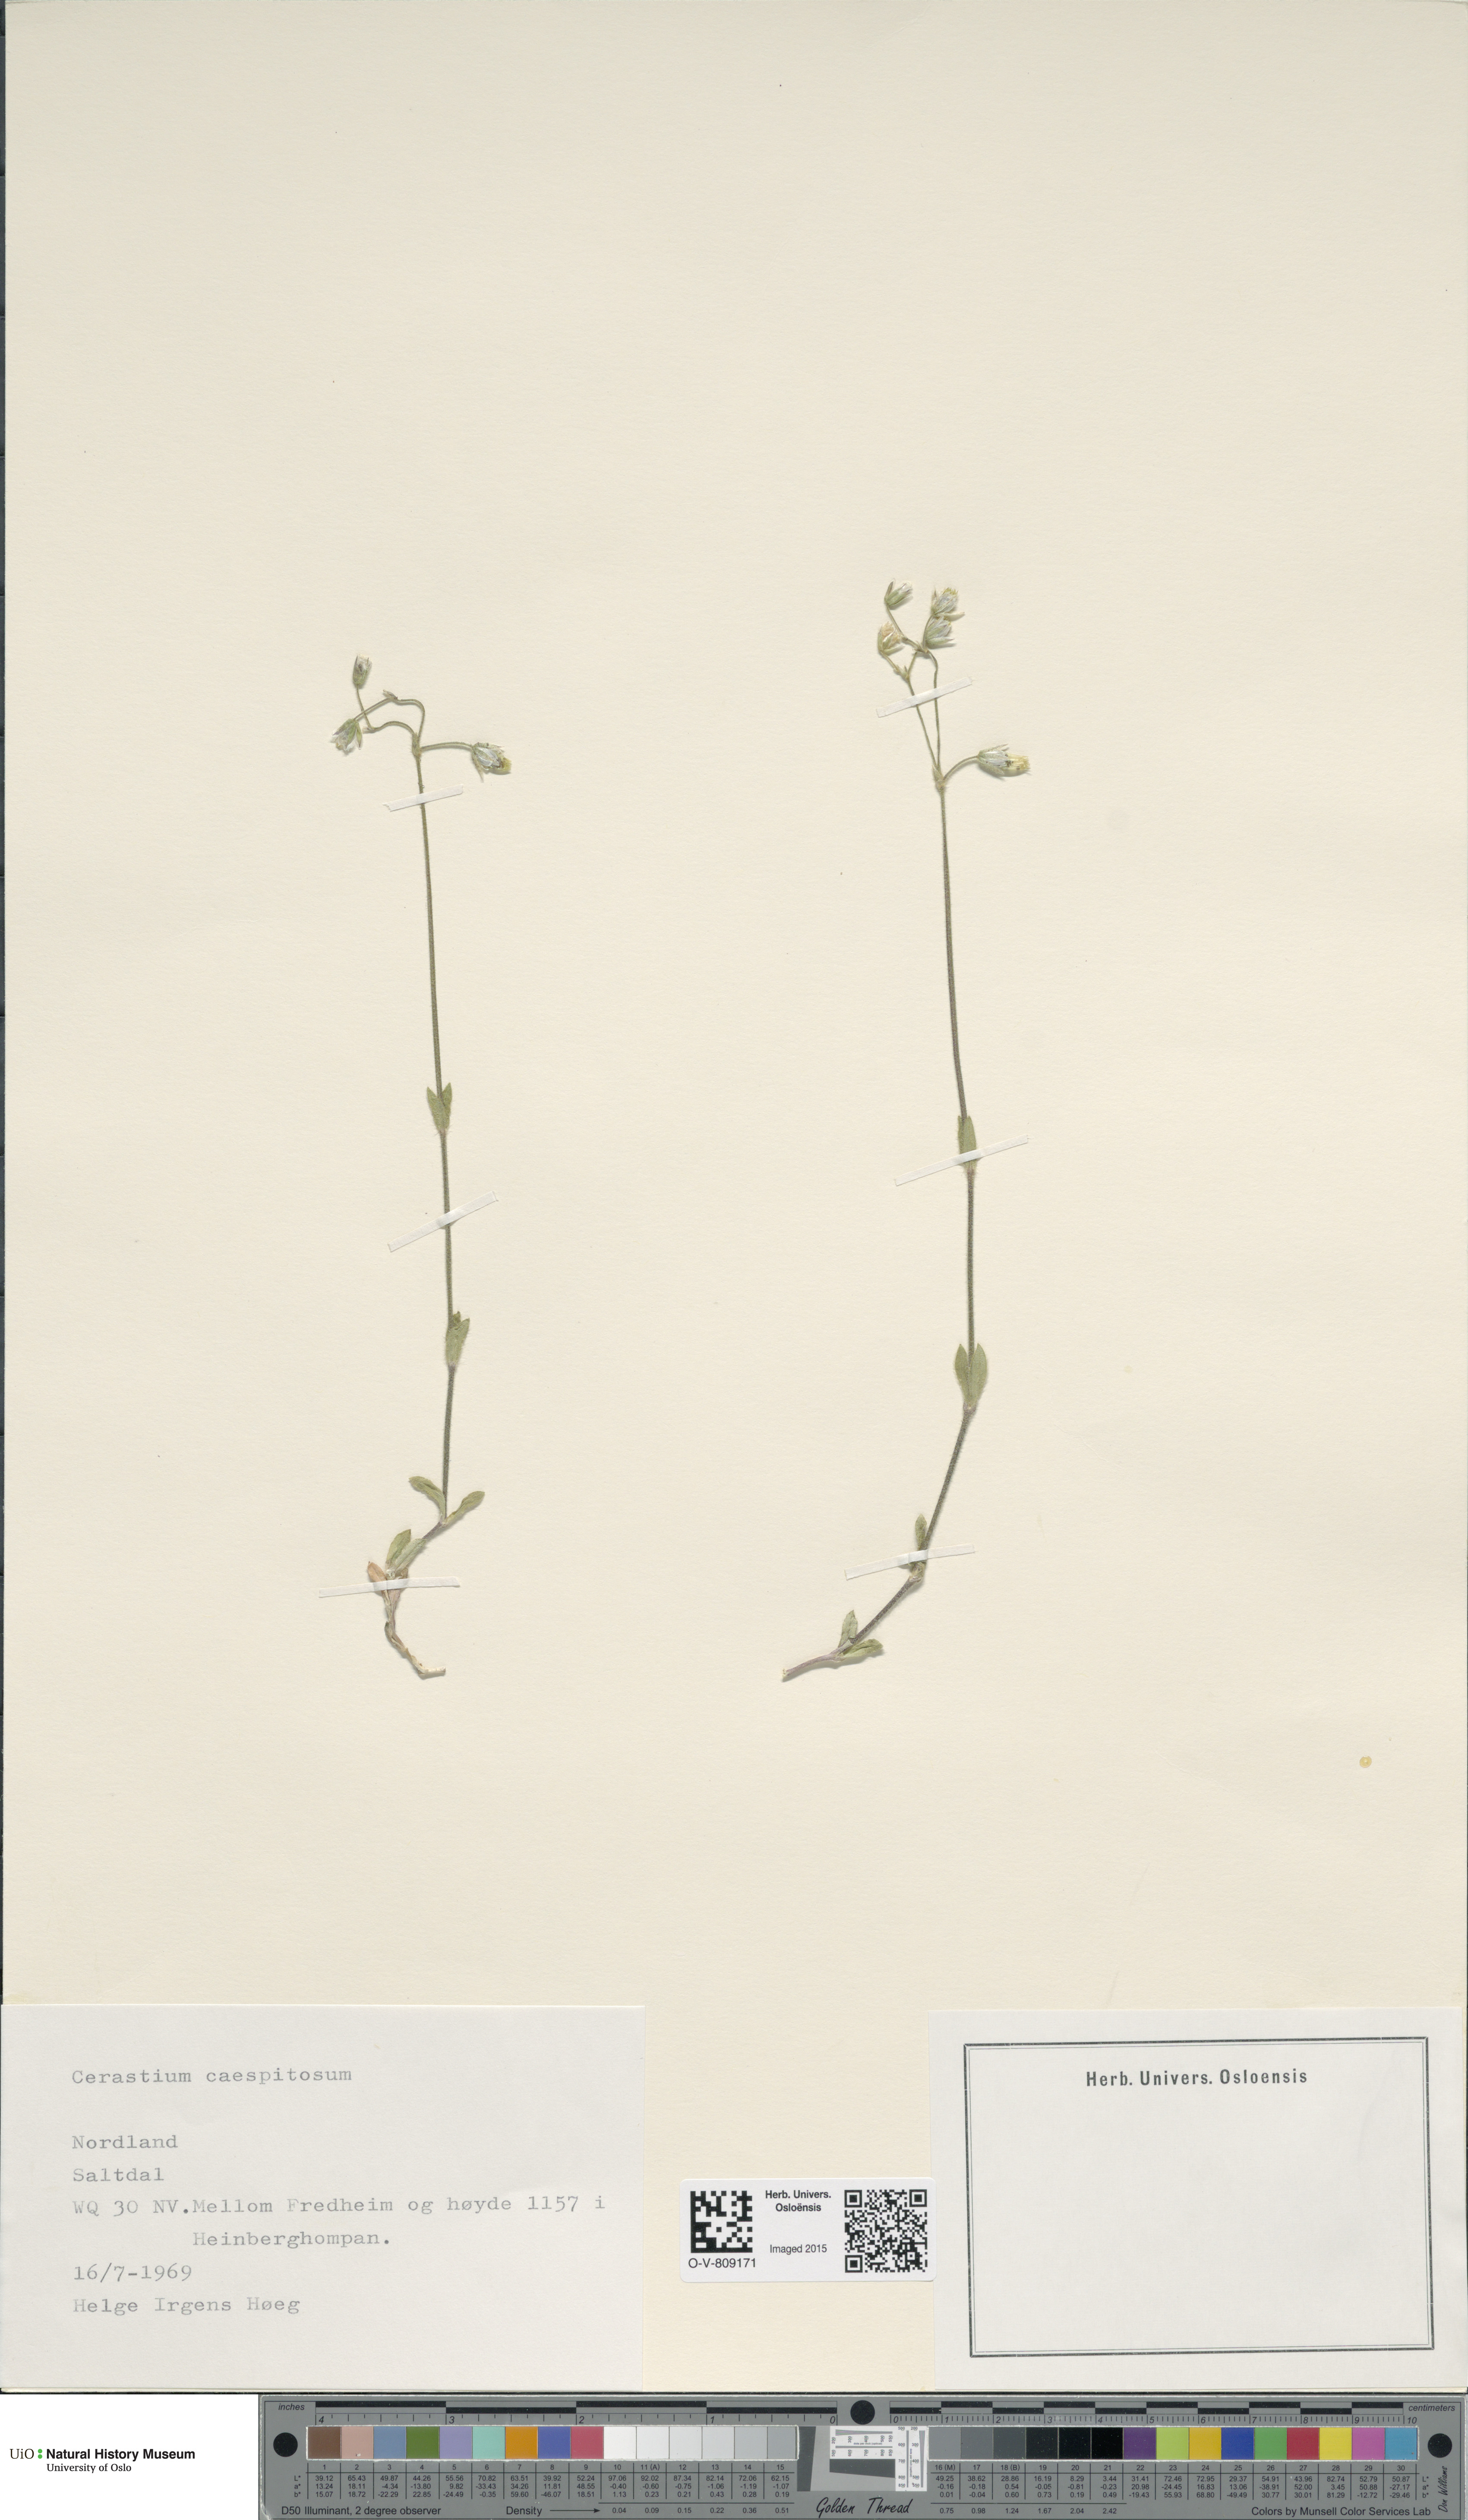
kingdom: Plantae
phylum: Tracheophyta
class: Magnoliopsida
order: Caryophyllales
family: Caryophyllaceae
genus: Cerastium
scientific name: Cerastium holosteoides
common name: Big chickweed
